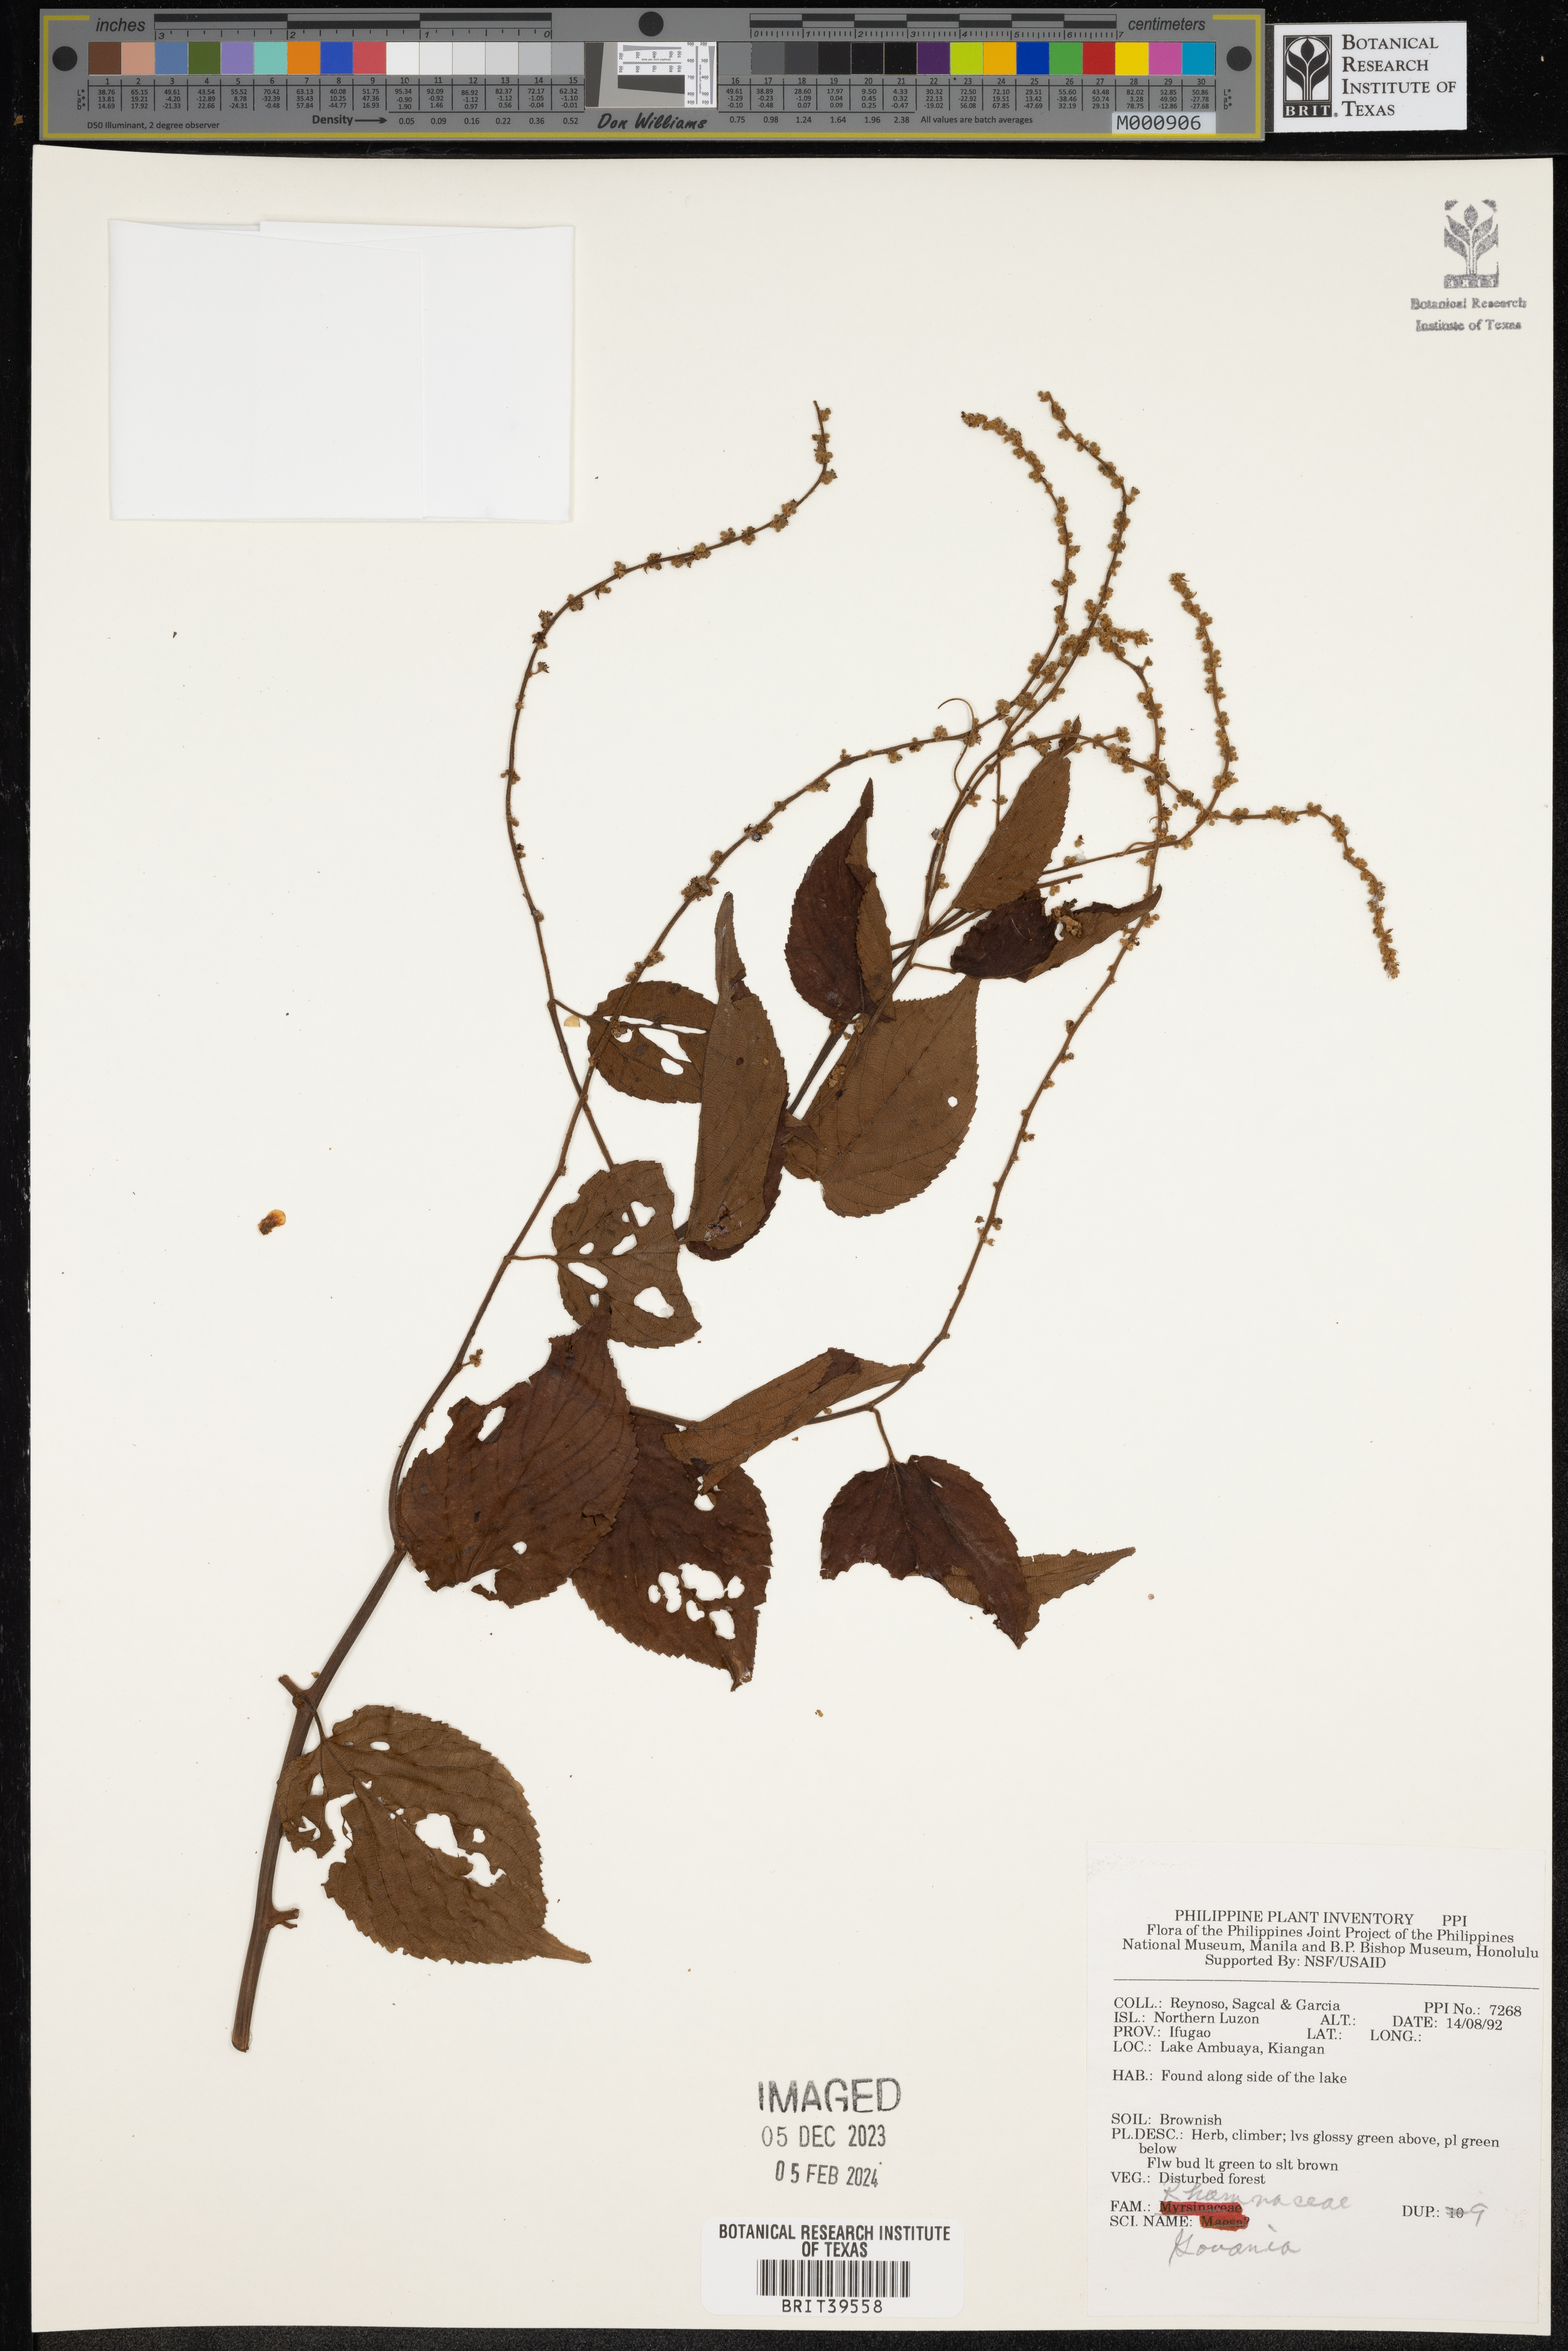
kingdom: Plantae
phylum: Tracheophyta
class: Magnoliopsida
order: Rosales
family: Rhamnaceae
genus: Gouania
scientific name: Gouania
